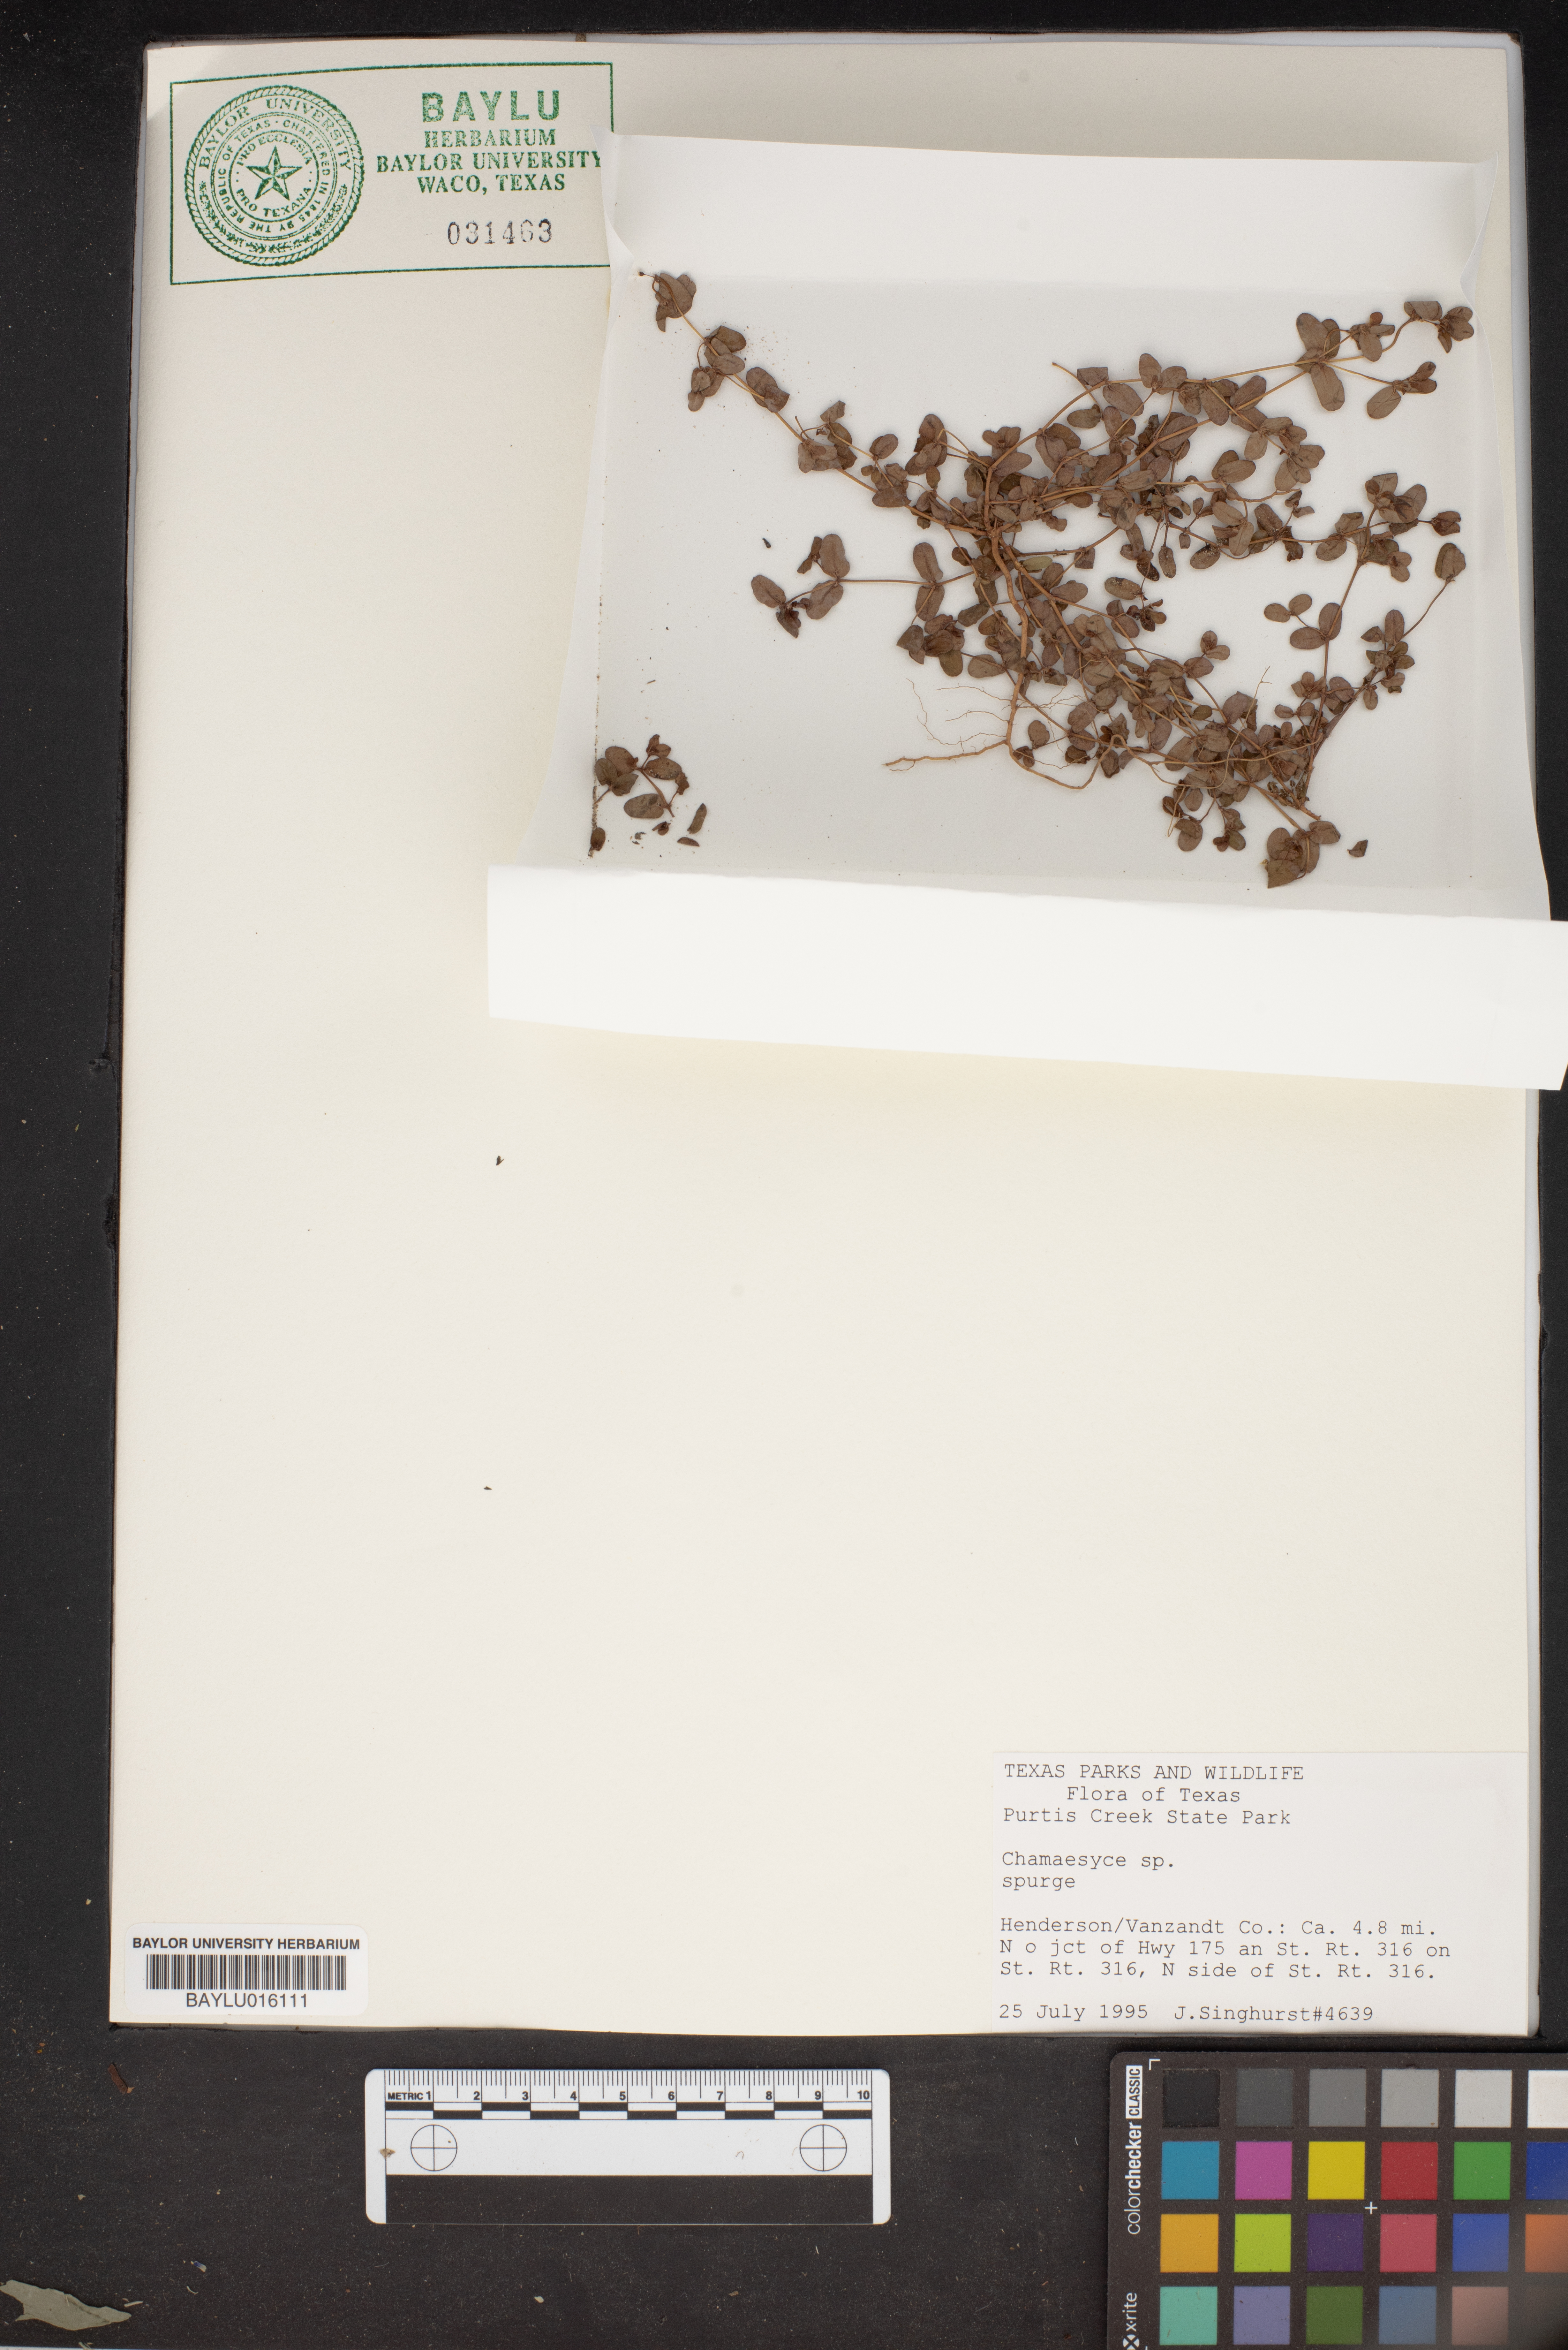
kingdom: Plantae
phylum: Tracheophyta
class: Magnoliopsida
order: Malpighiales
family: Euphorbiaceae
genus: Chamaesyce
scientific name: Chamaesyce
